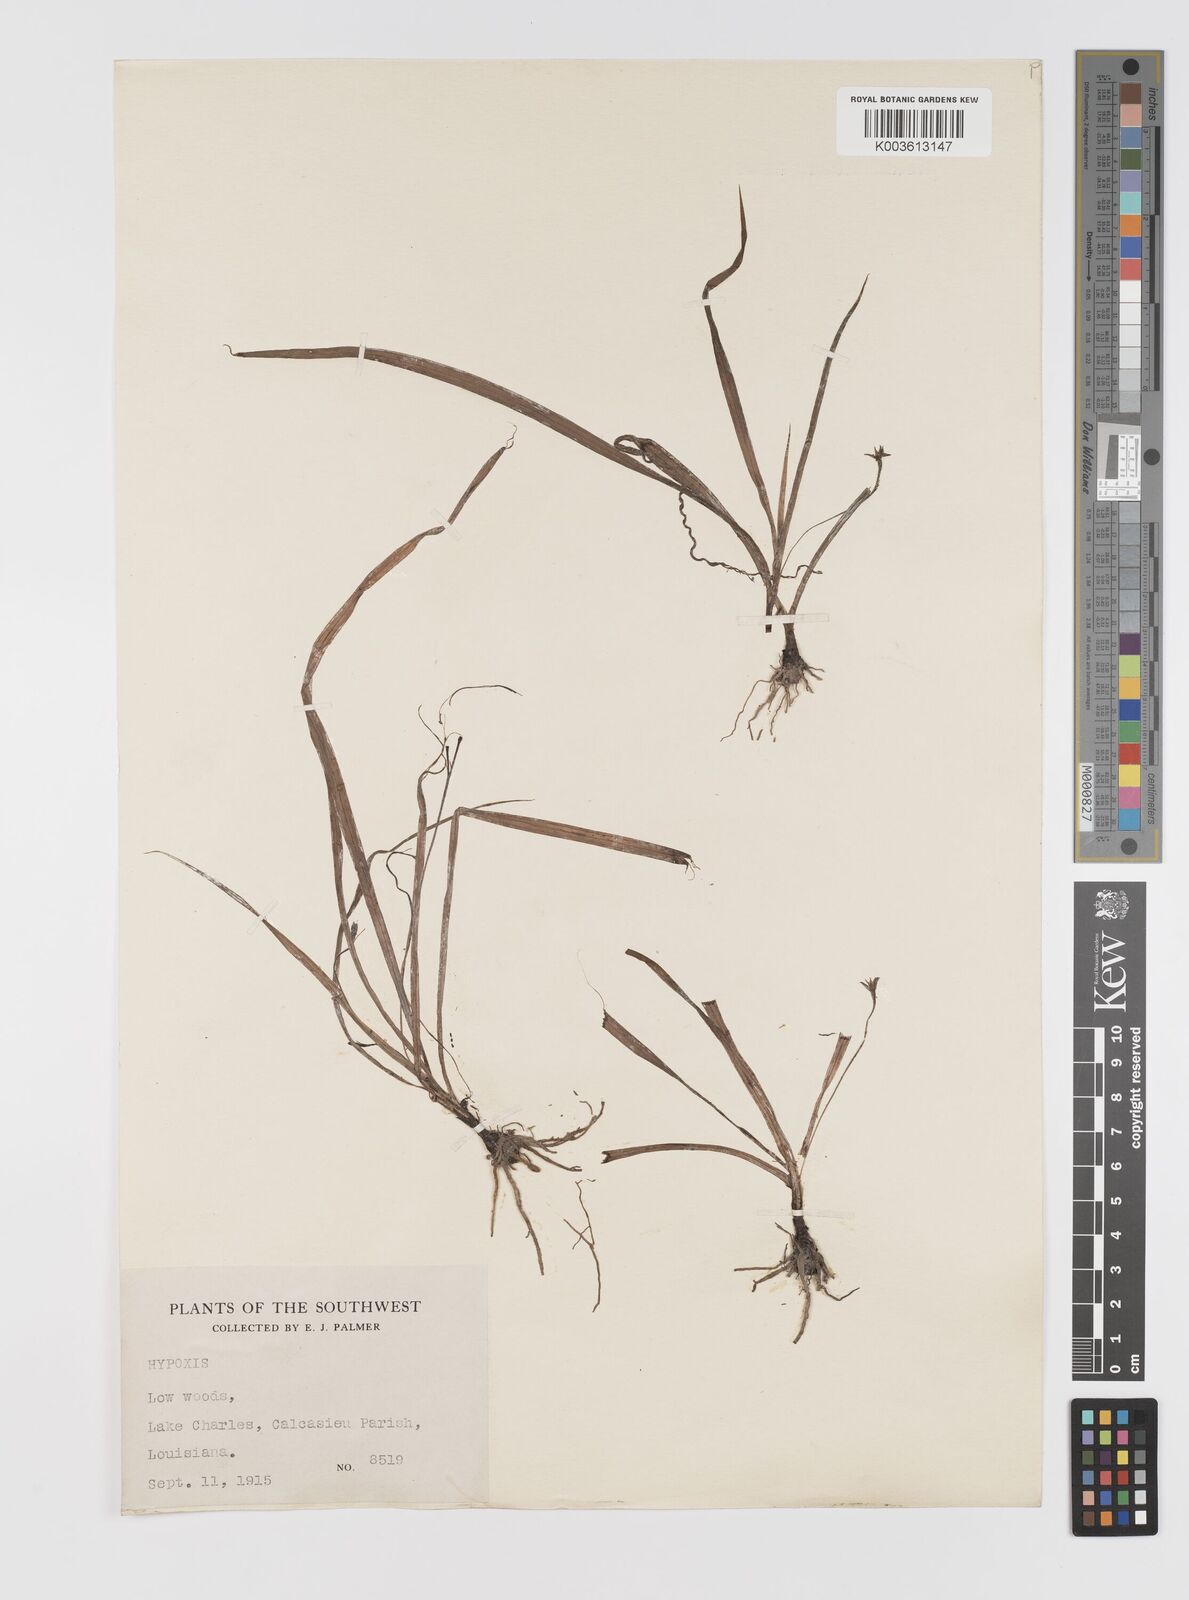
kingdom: Plantae
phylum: Tracheophyta
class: Liliopsida
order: Asparagales
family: Hypoxidaceae
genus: Hypoxis
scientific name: Hypoxis
